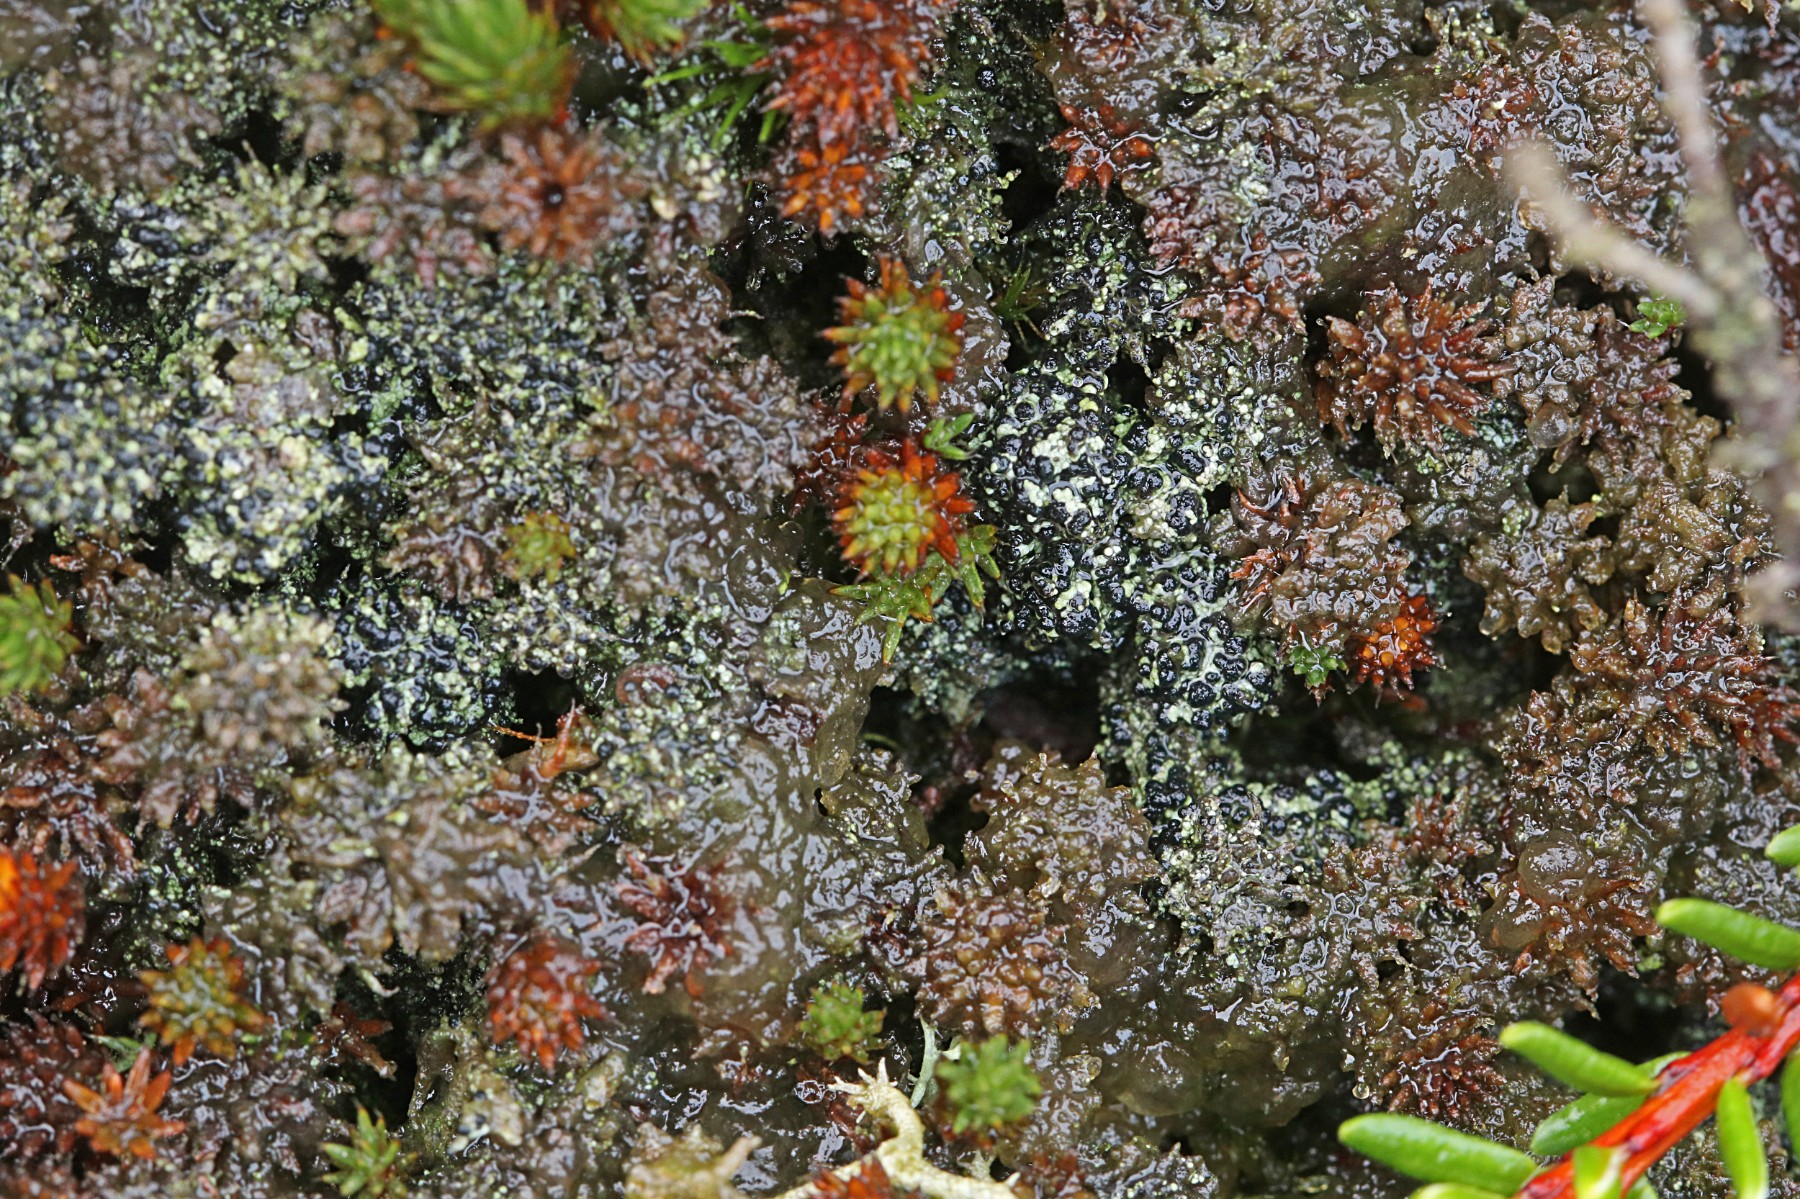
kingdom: Fungi
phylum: Ascomycota
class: Lecanoromycetes
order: Lecanorales
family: Byssolomataceae
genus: Micarea
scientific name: Micarea lignaria
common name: tørve-knaplav
